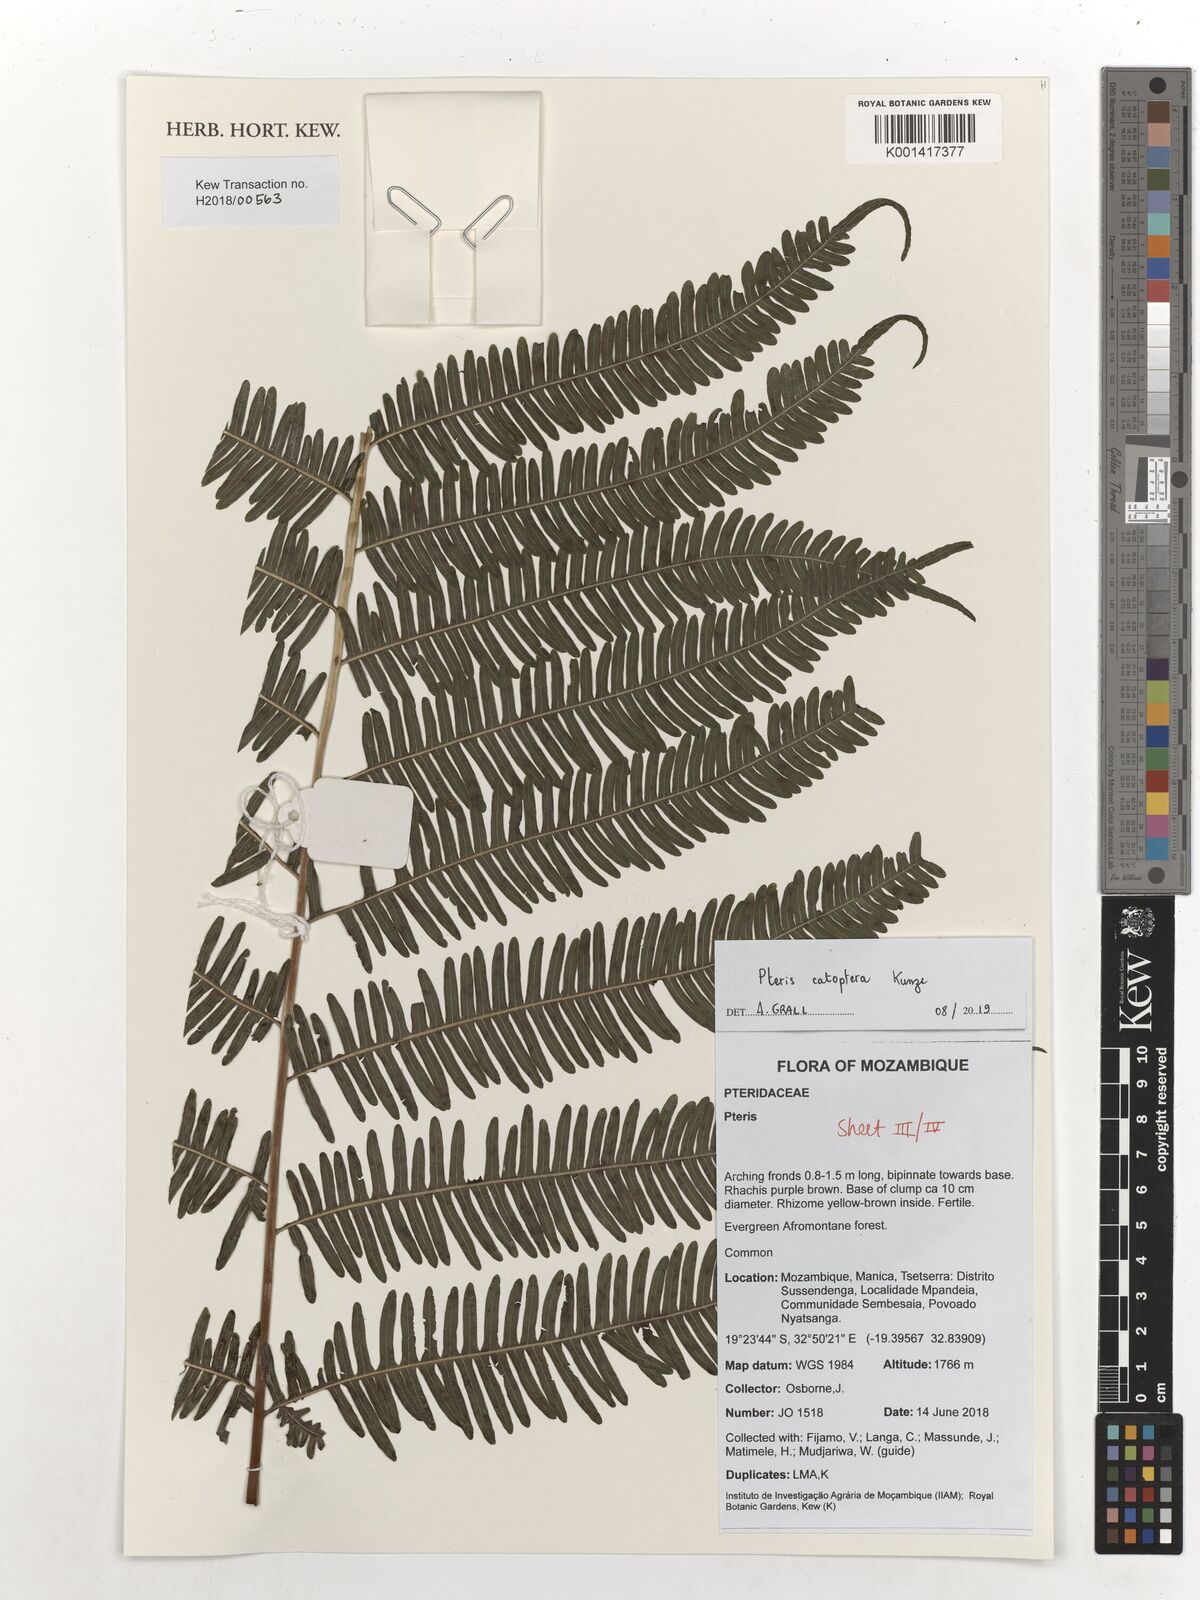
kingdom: Plantae
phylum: Tracheophyta
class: Polypodiopsida
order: Polypodiales
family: Pteridaceae
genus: Pteris
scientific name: Pteris catoptera
